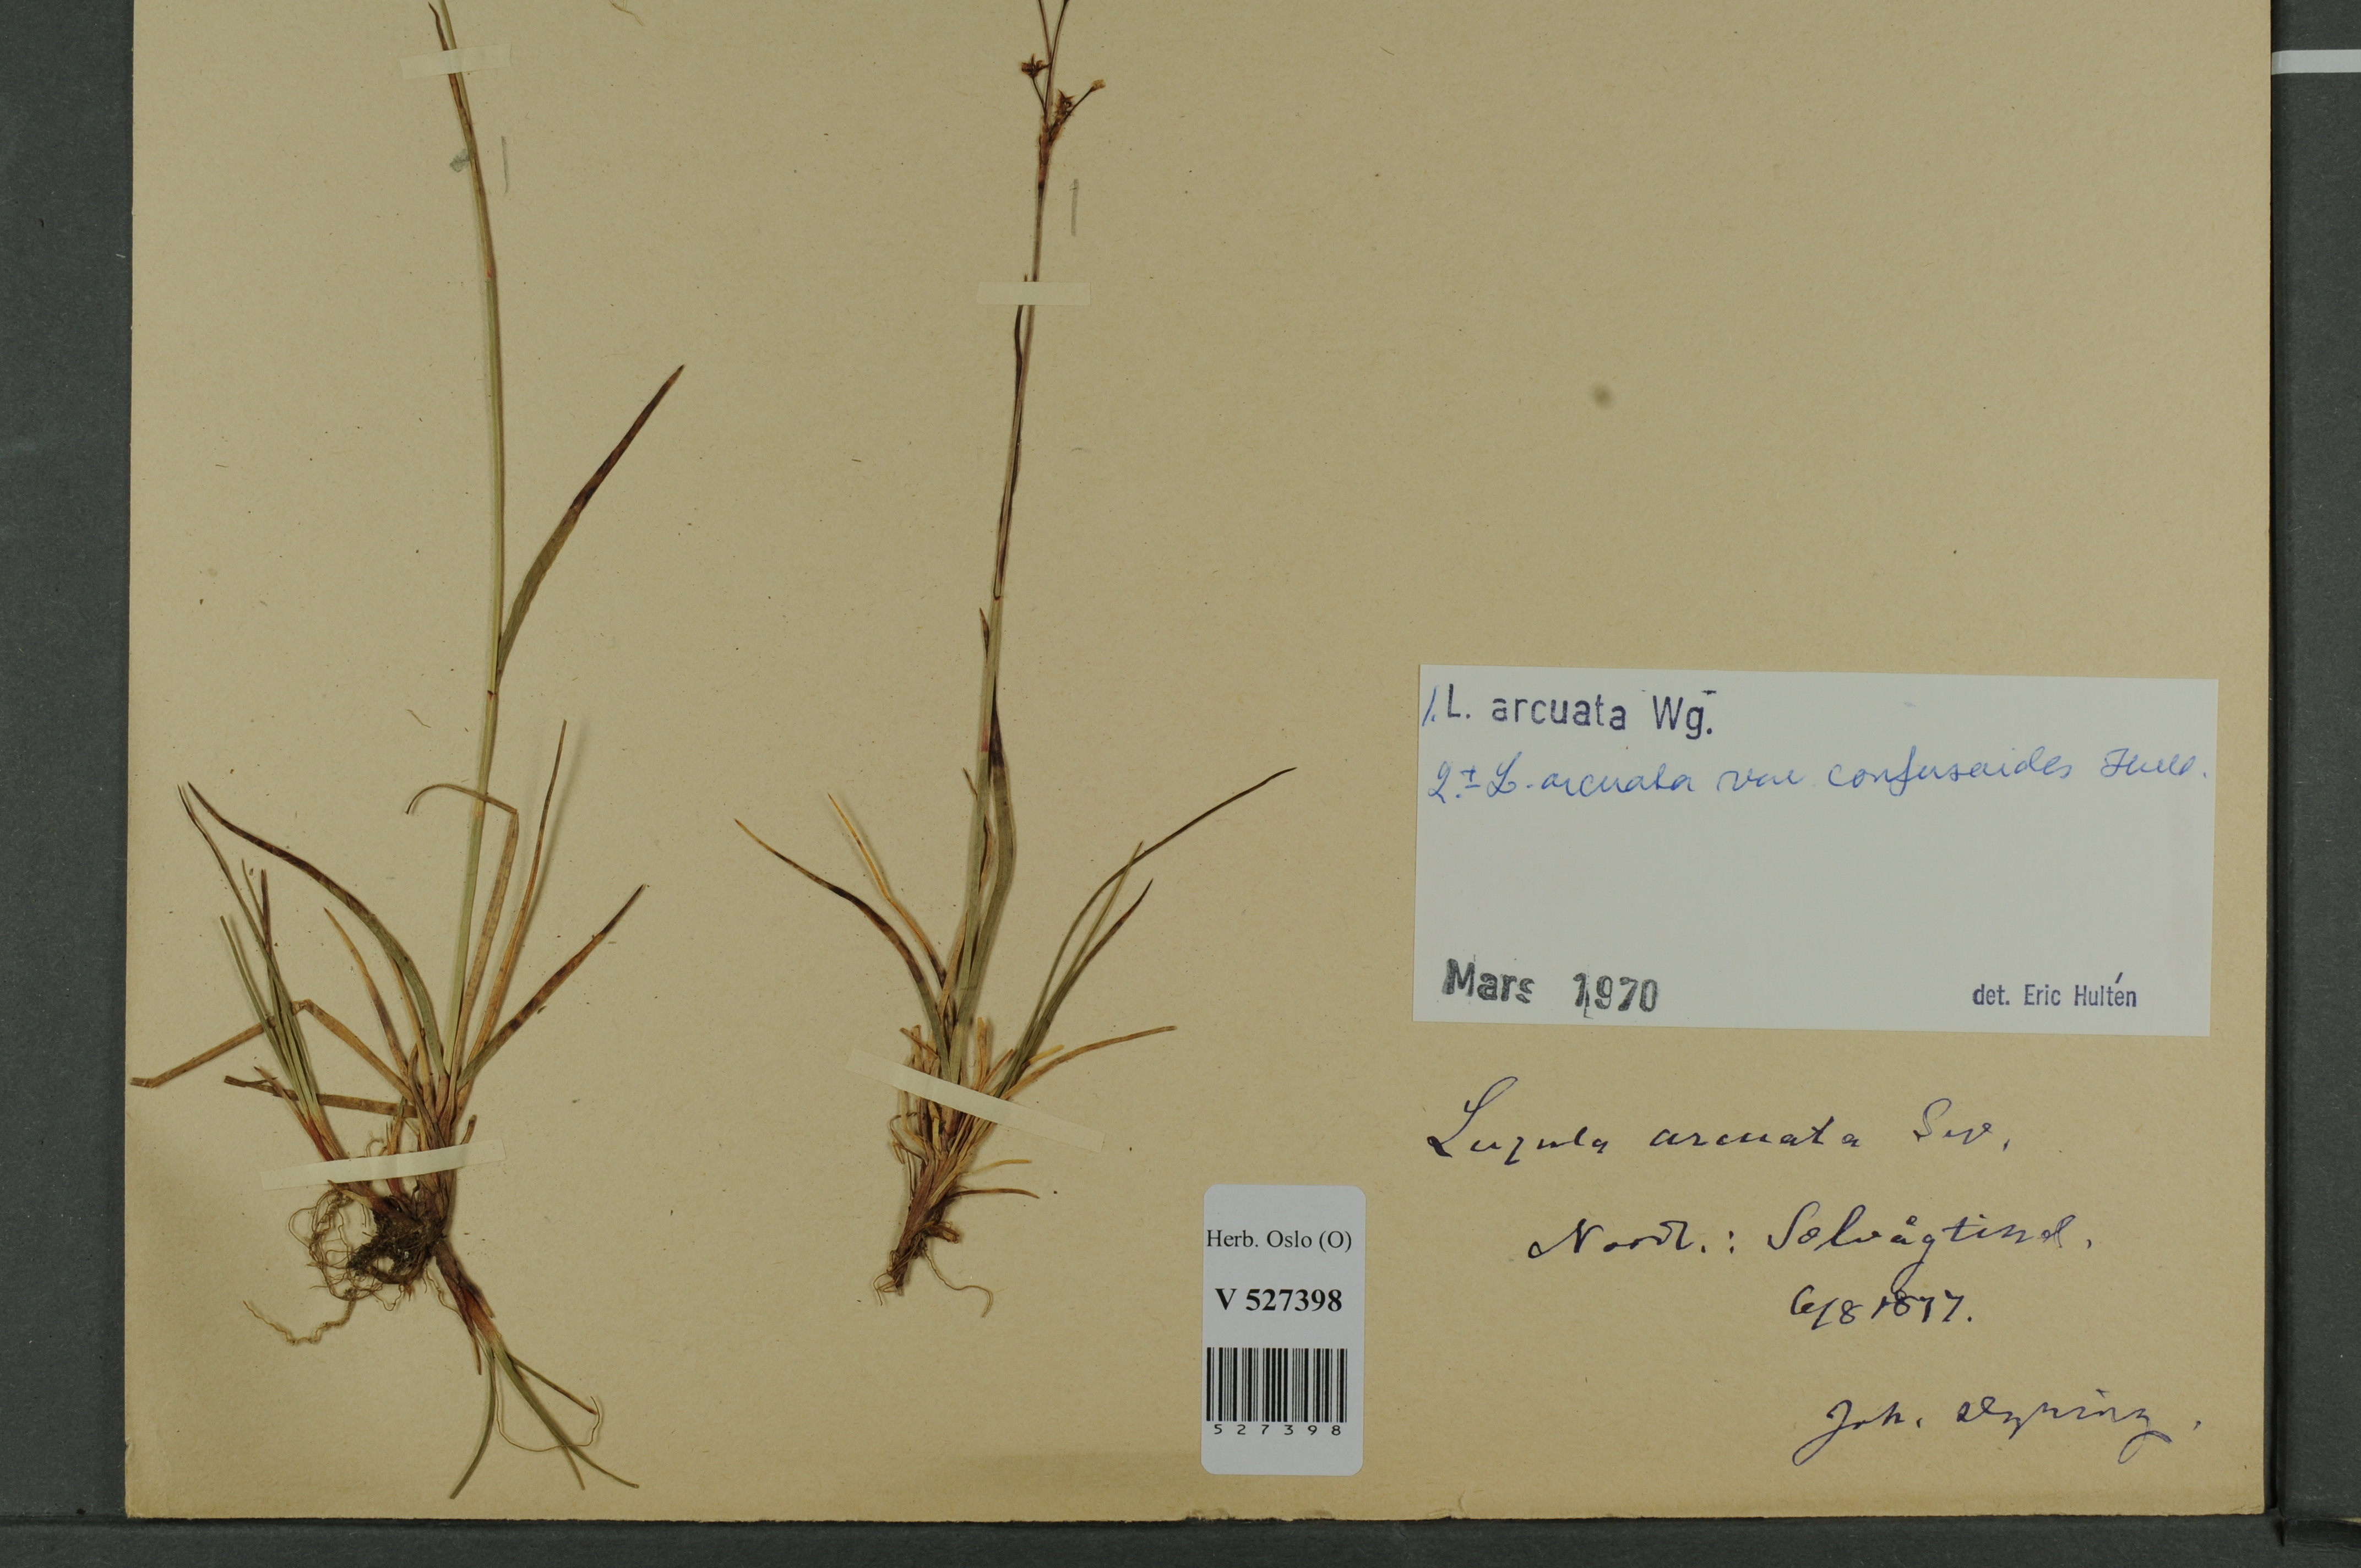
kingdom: Plantae
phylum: Tracheophyta
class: Liliopsida
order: Poales
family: Juncaceae
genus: Luzula
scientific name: Luzula arcuata
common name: Curved wood-rush
